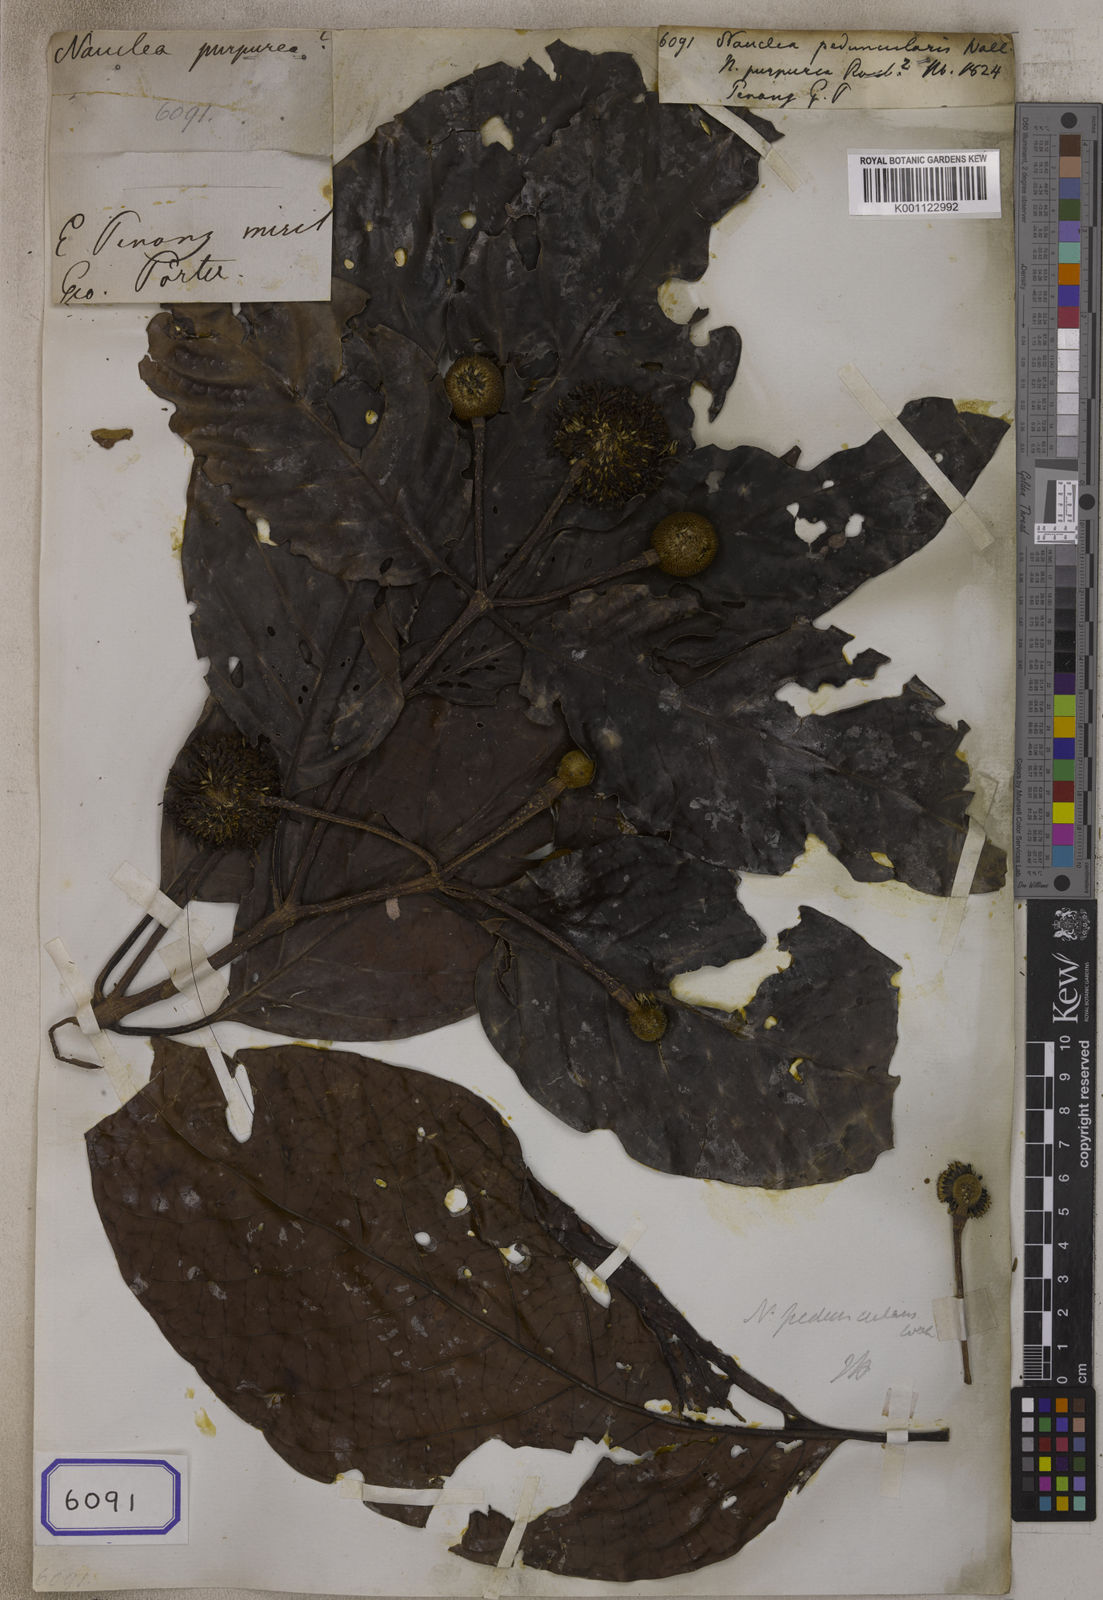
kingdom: Plantae
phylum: Tracheophyta
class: Magnoliopsida
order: Gentianales
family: Rubiaceae
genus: Nauclea
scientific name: Nauclea
